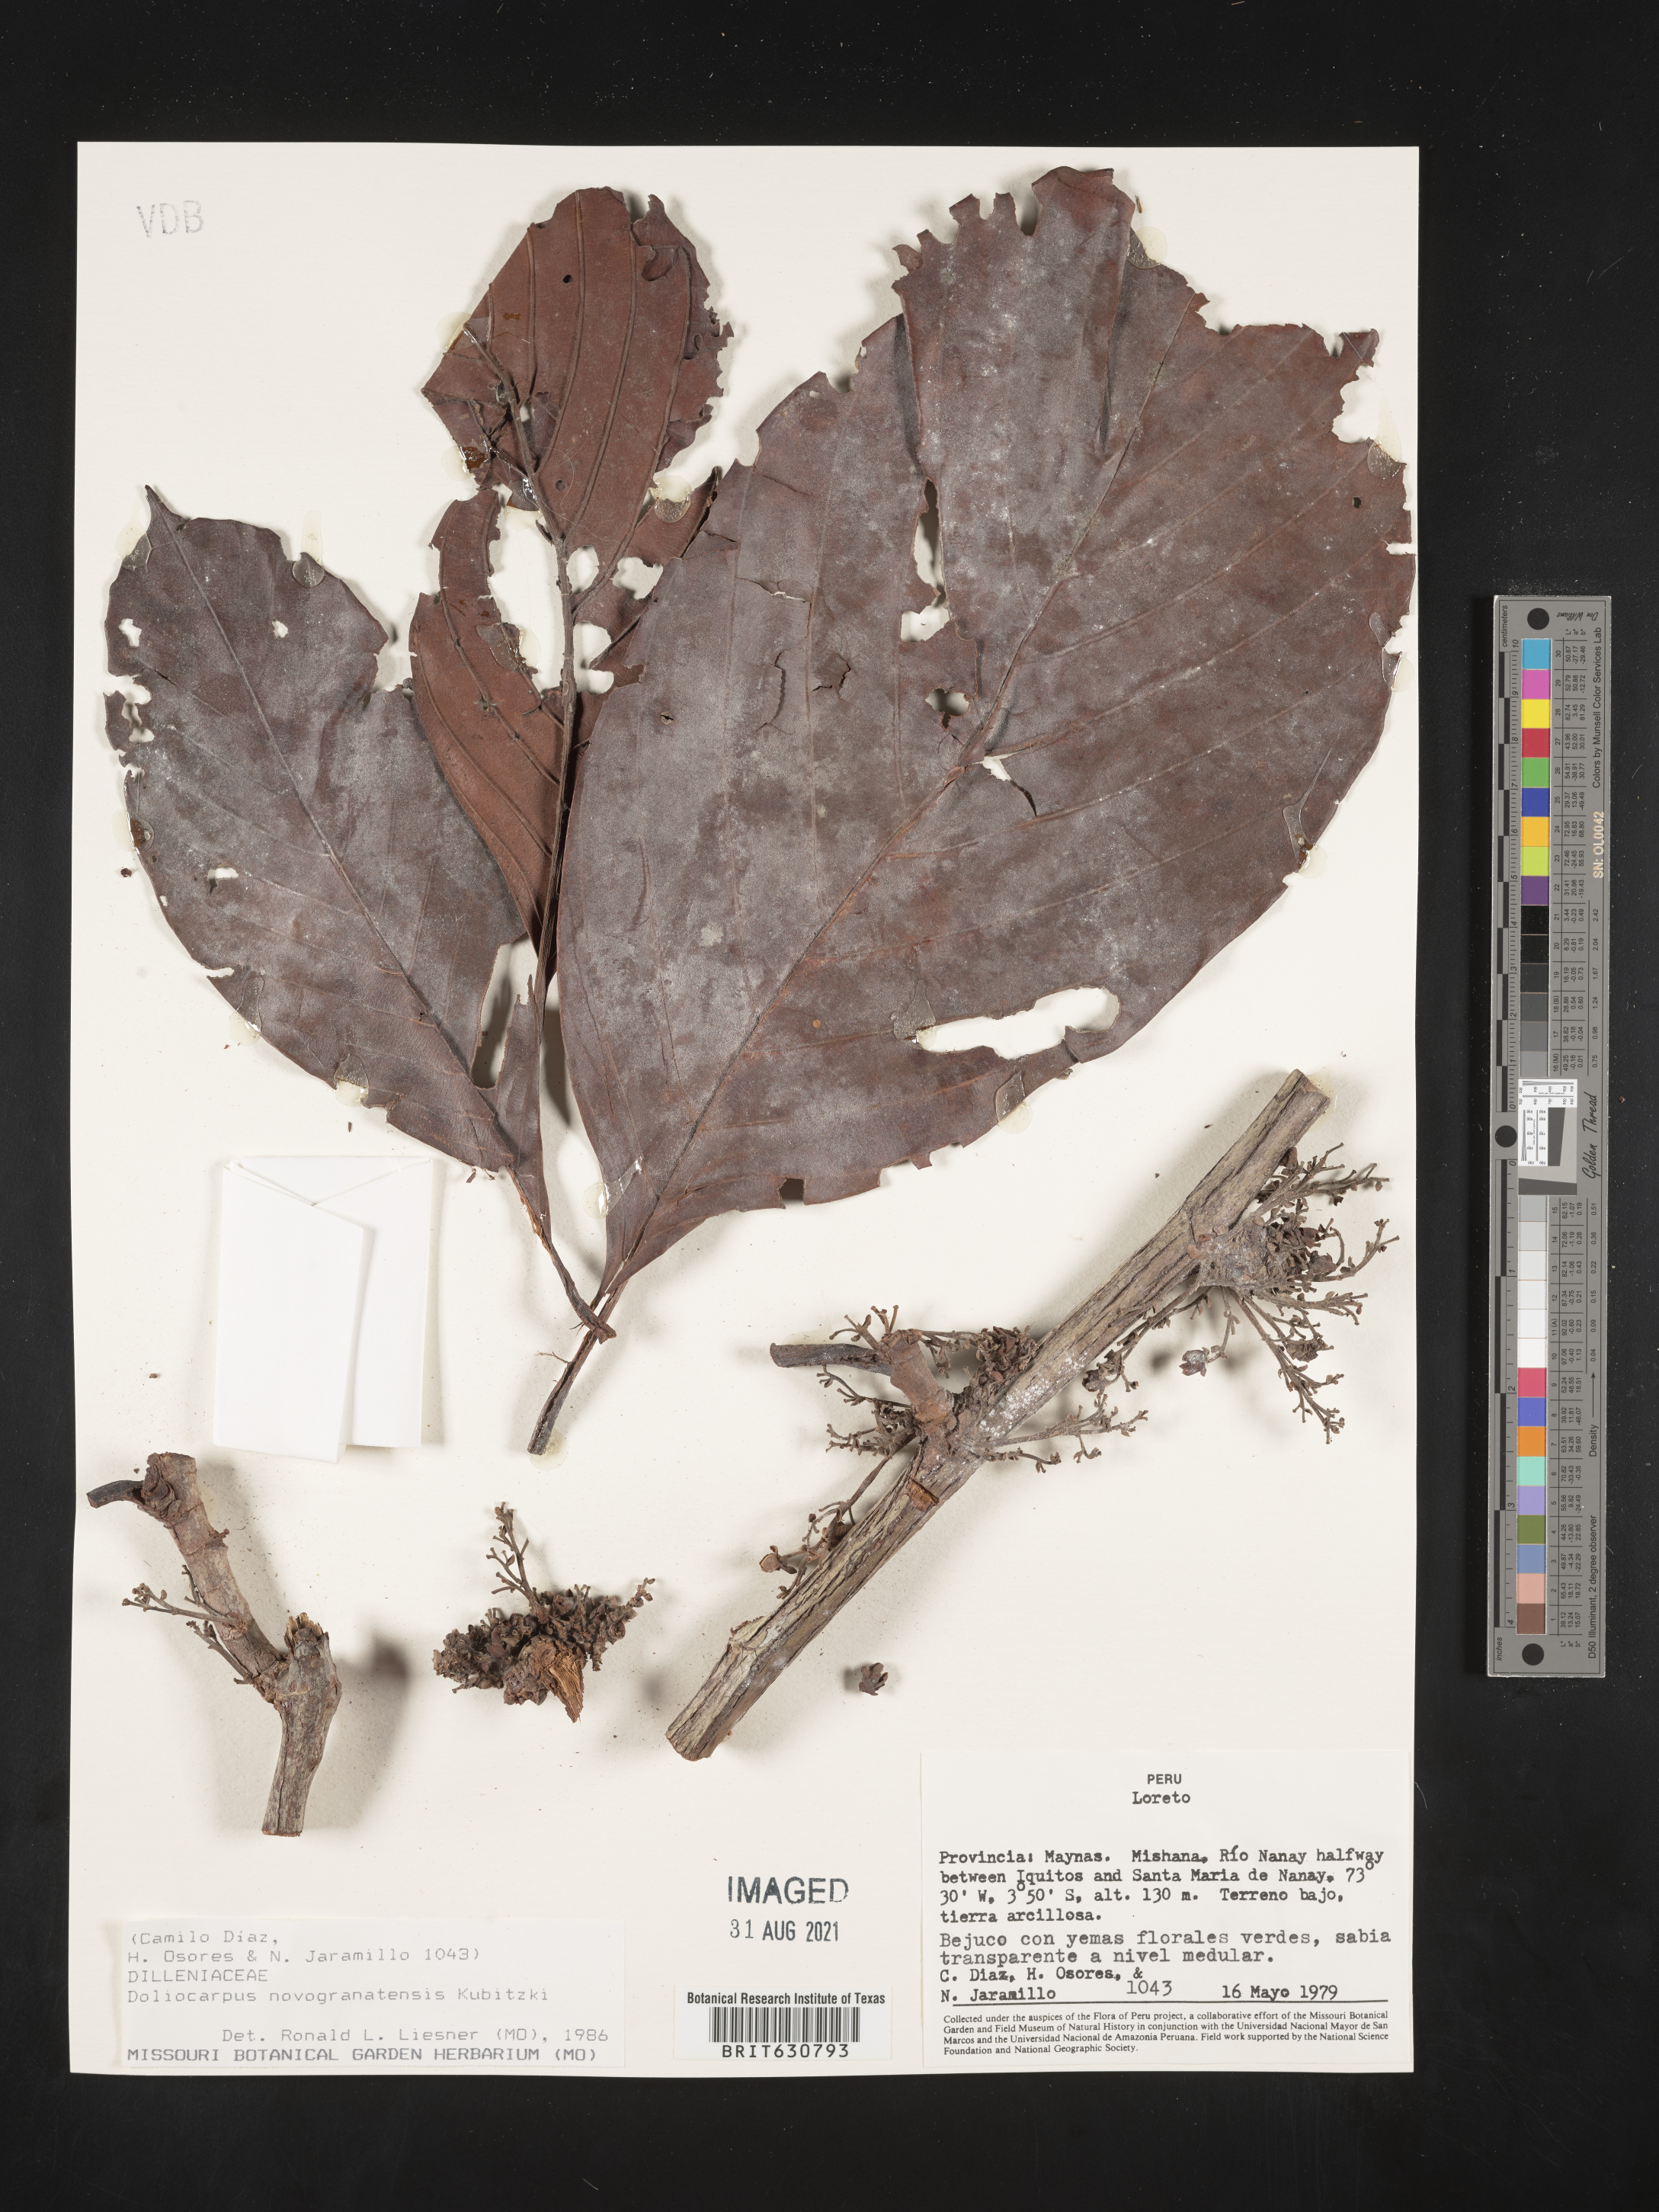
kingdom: Plantae
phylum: Tracheophyta
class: Magnoliopsida
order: Dilleniales
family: Dilleniaceae
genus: Doliocarpus
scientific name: Doliocarpus
